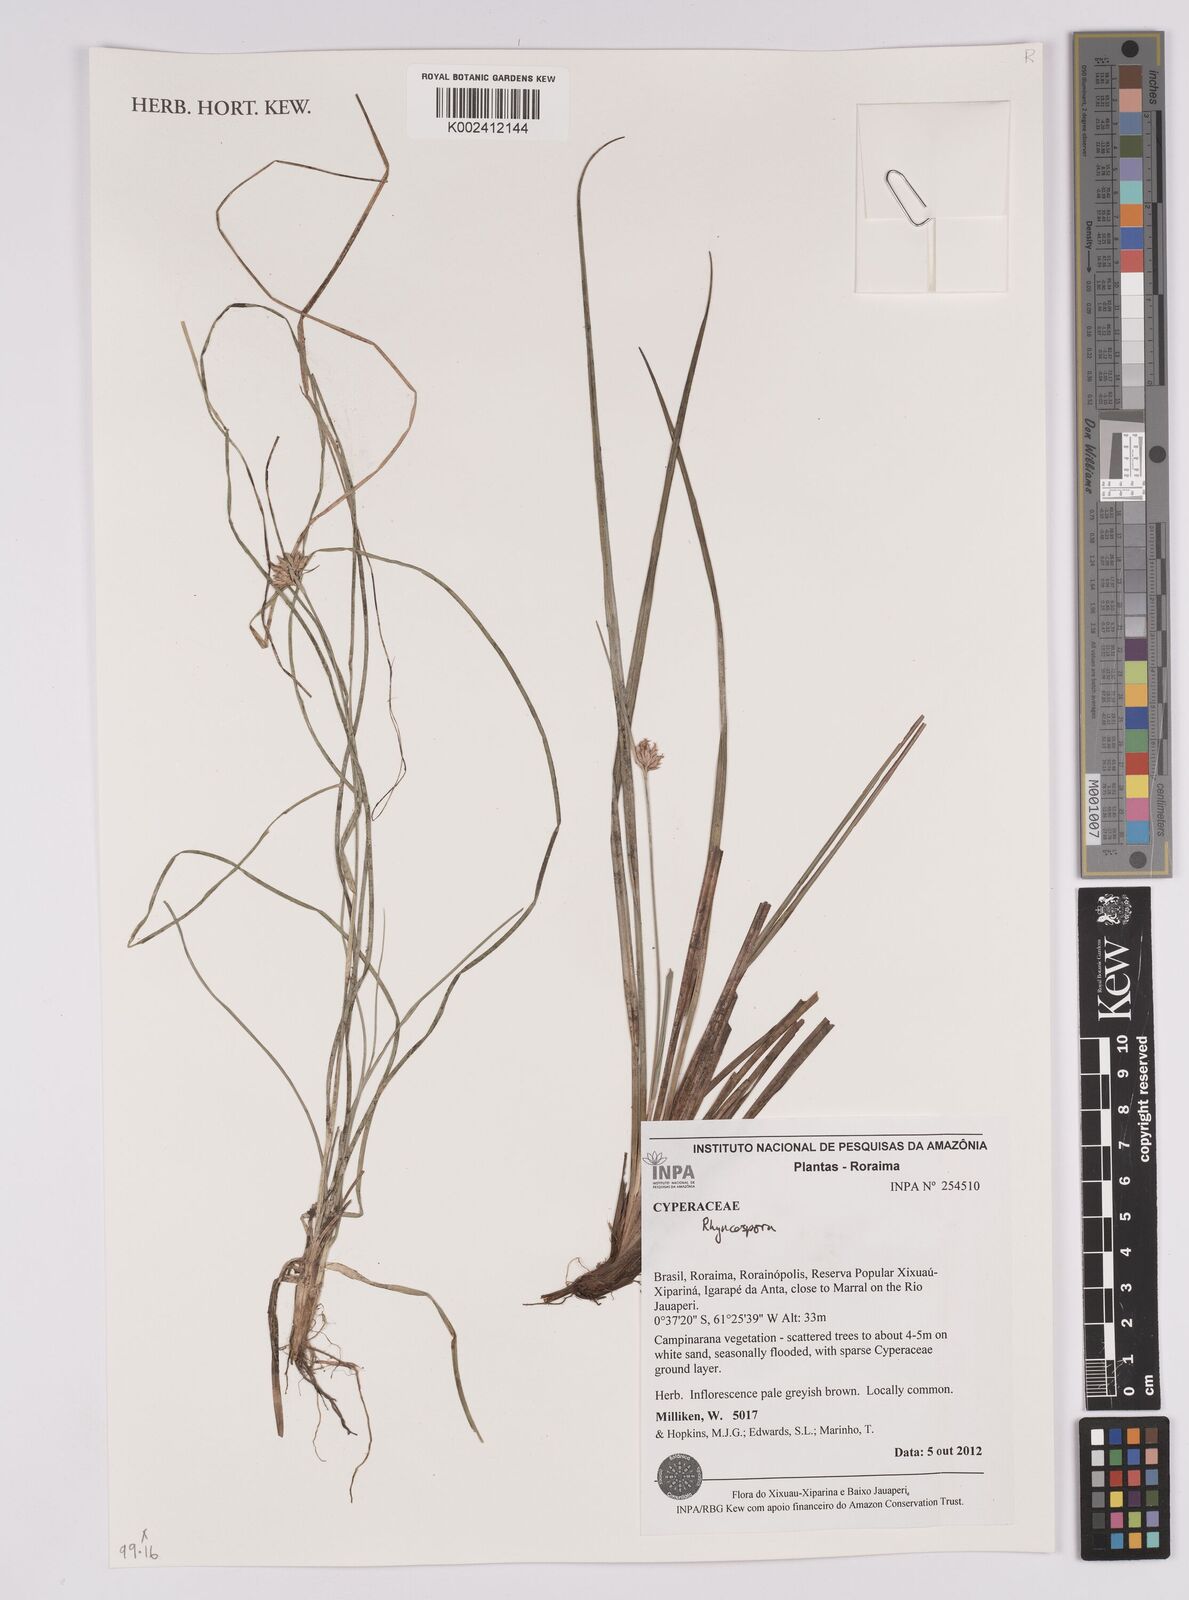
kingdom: Plantae
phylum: Tracheophyta
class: Liliopsida
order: Poales
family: Cyperaceae
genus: Rhynchospora
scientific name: Rhynchospora
